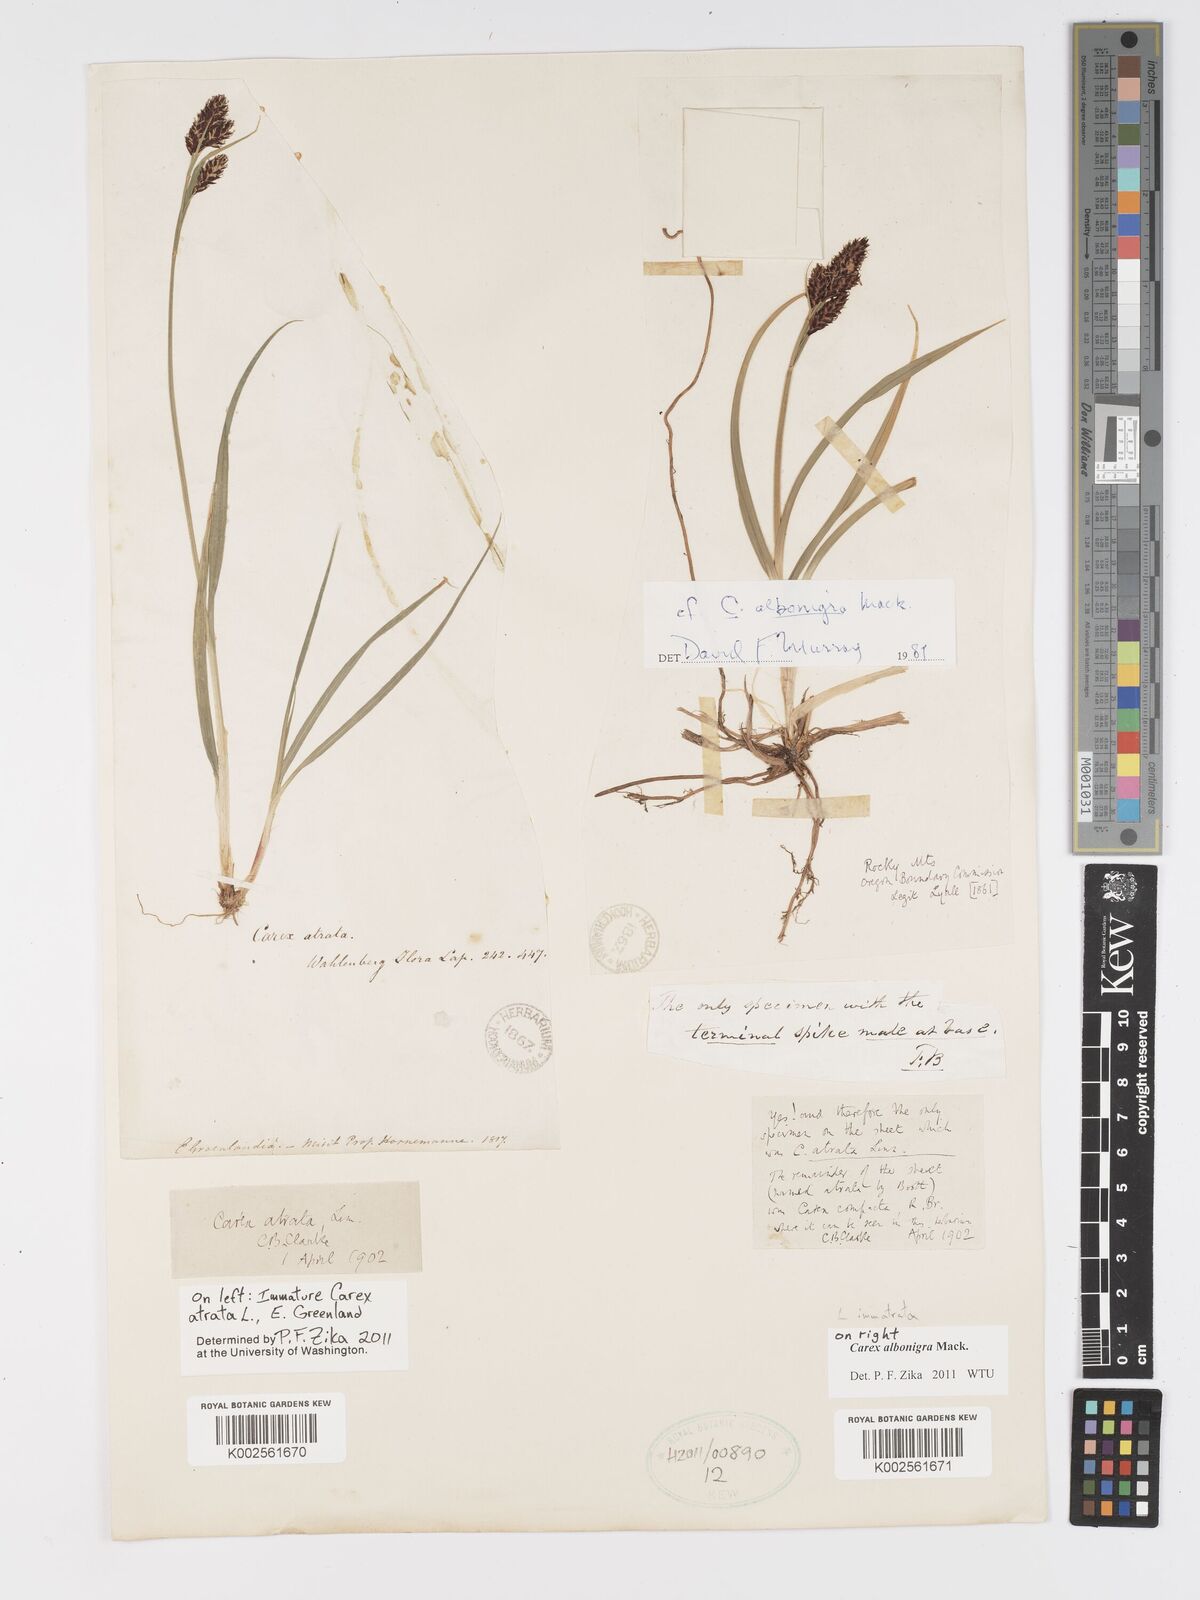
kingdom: Plantae
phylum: Tracheophyta
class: Liliopsida
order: Poales
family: Cyperaceae
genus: Carex
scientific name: Carex albonigra
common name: Black-and-white sedge
